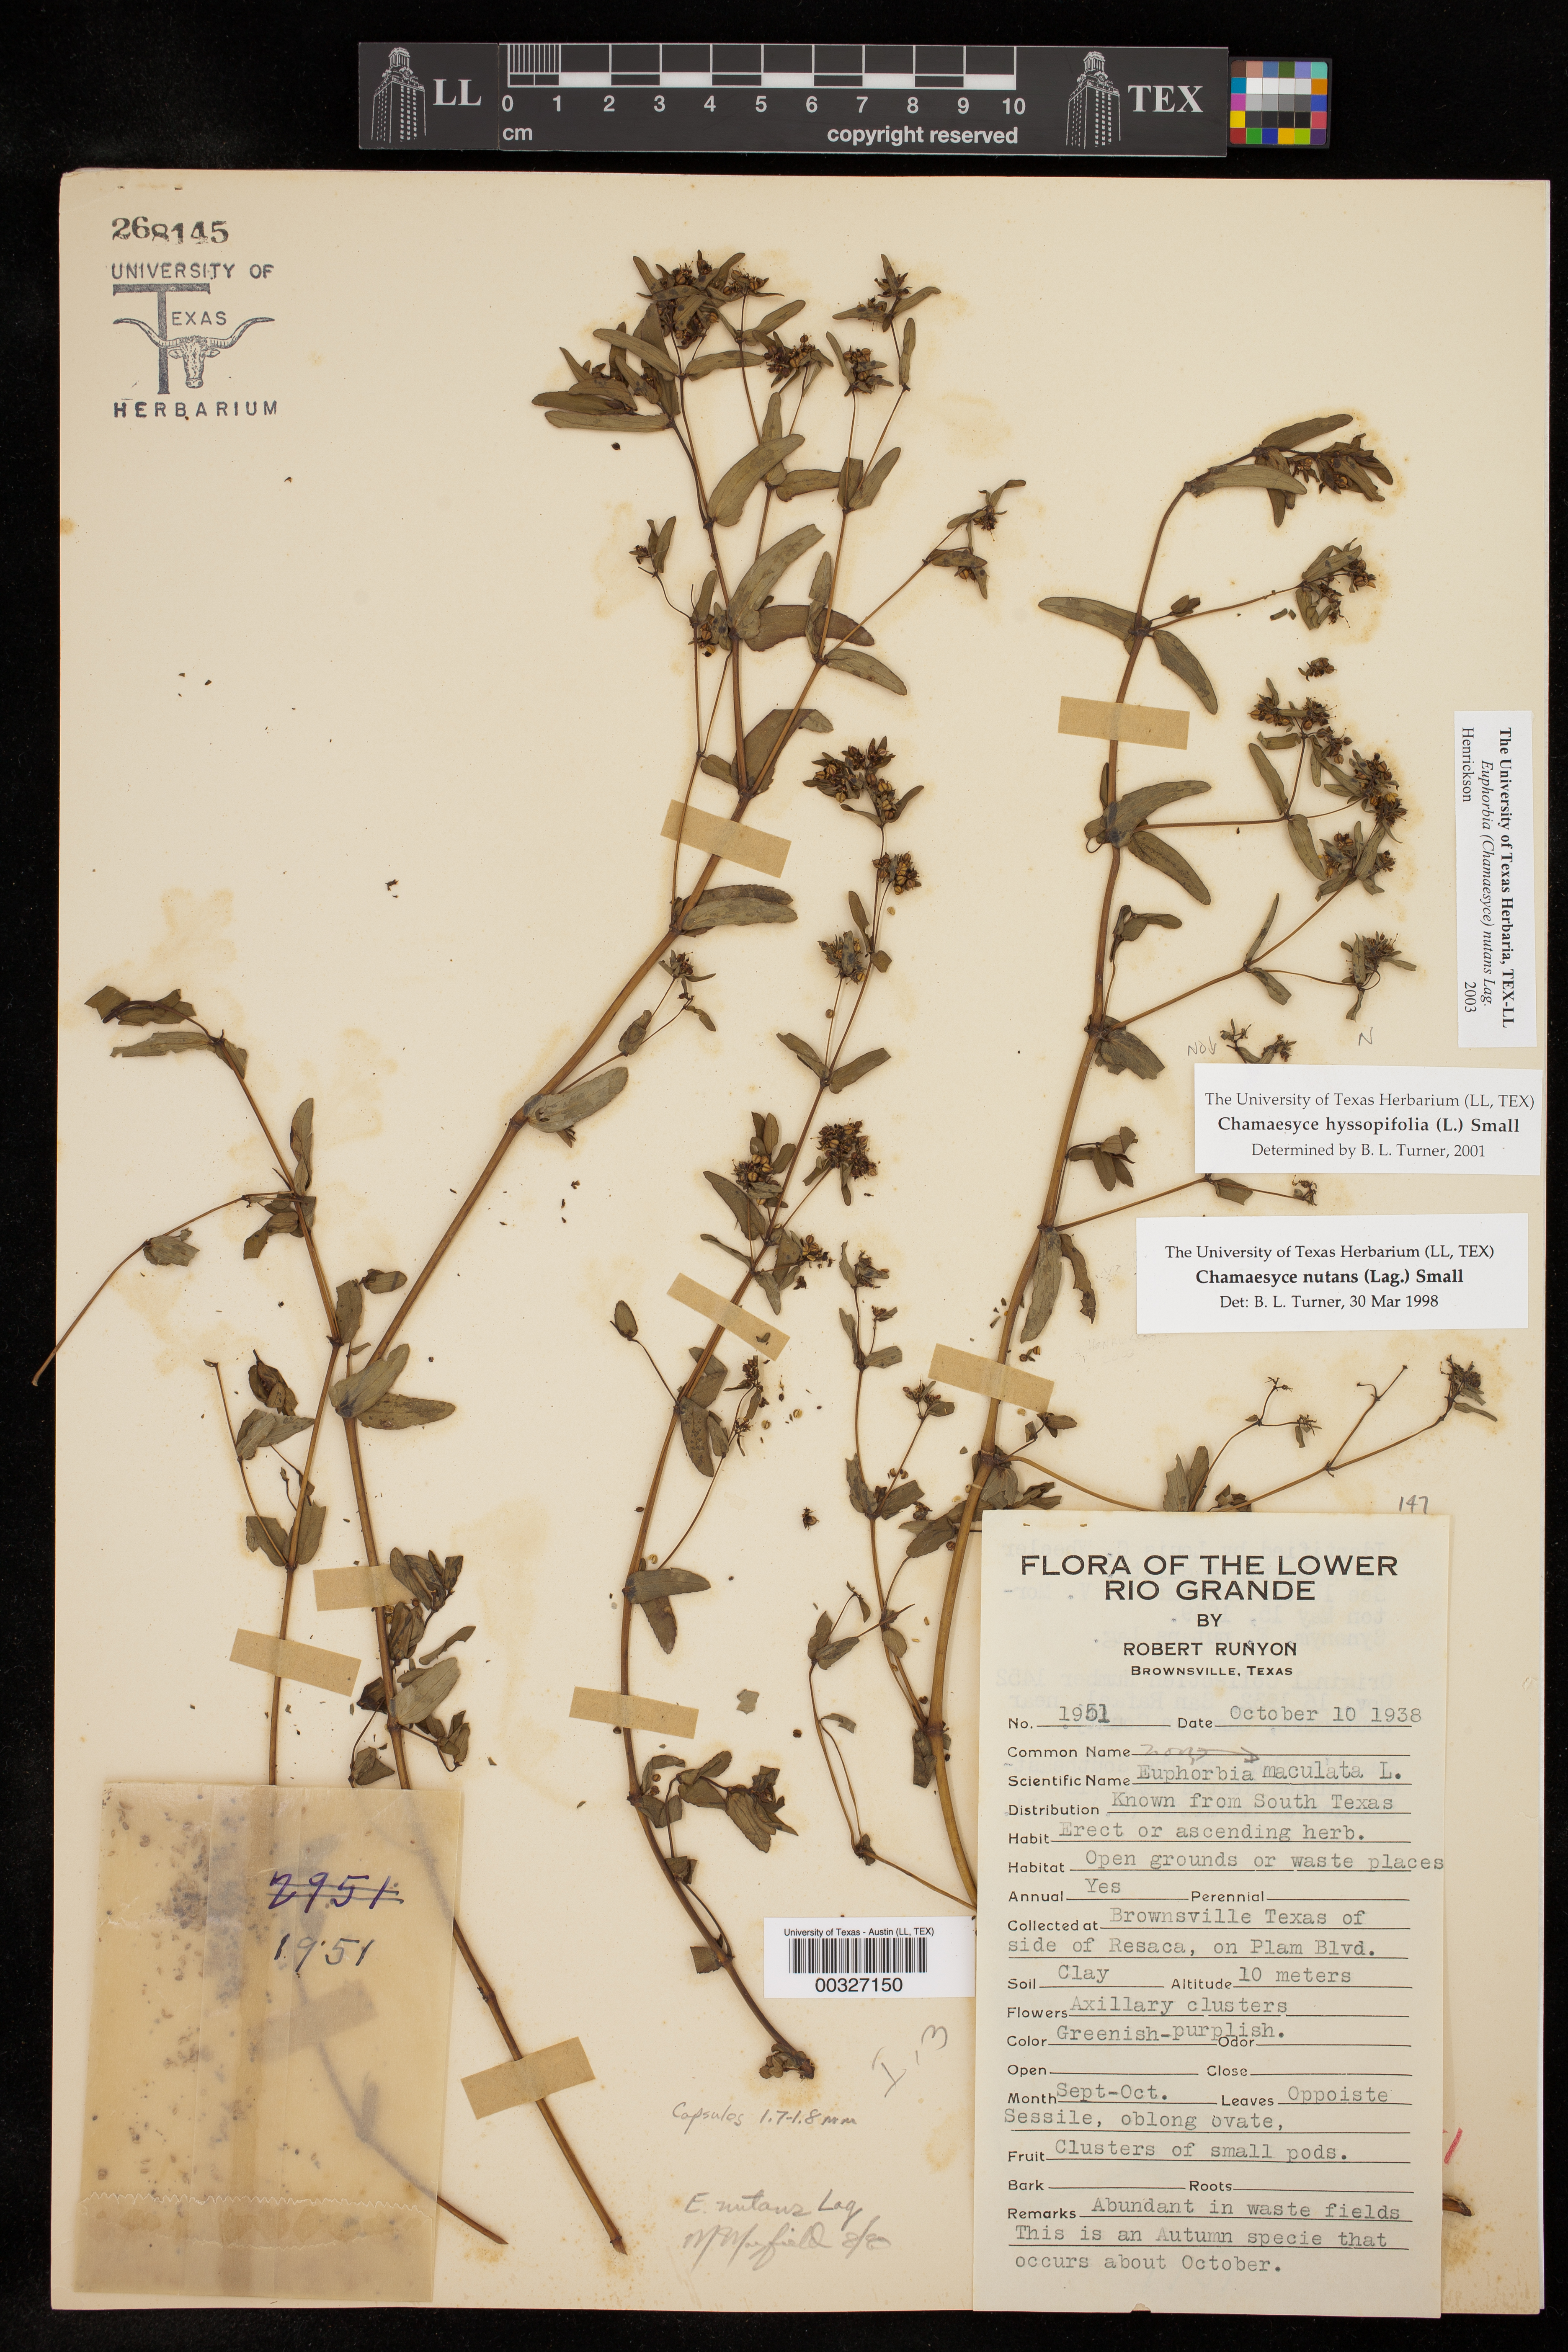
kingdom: Plantae
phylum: Tracheophyta
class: Magnoliopsida
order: Malpighiales
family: Euphorbiaceae
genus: Euphorbia
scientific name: Euphorbia nutans
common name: Eyebane
